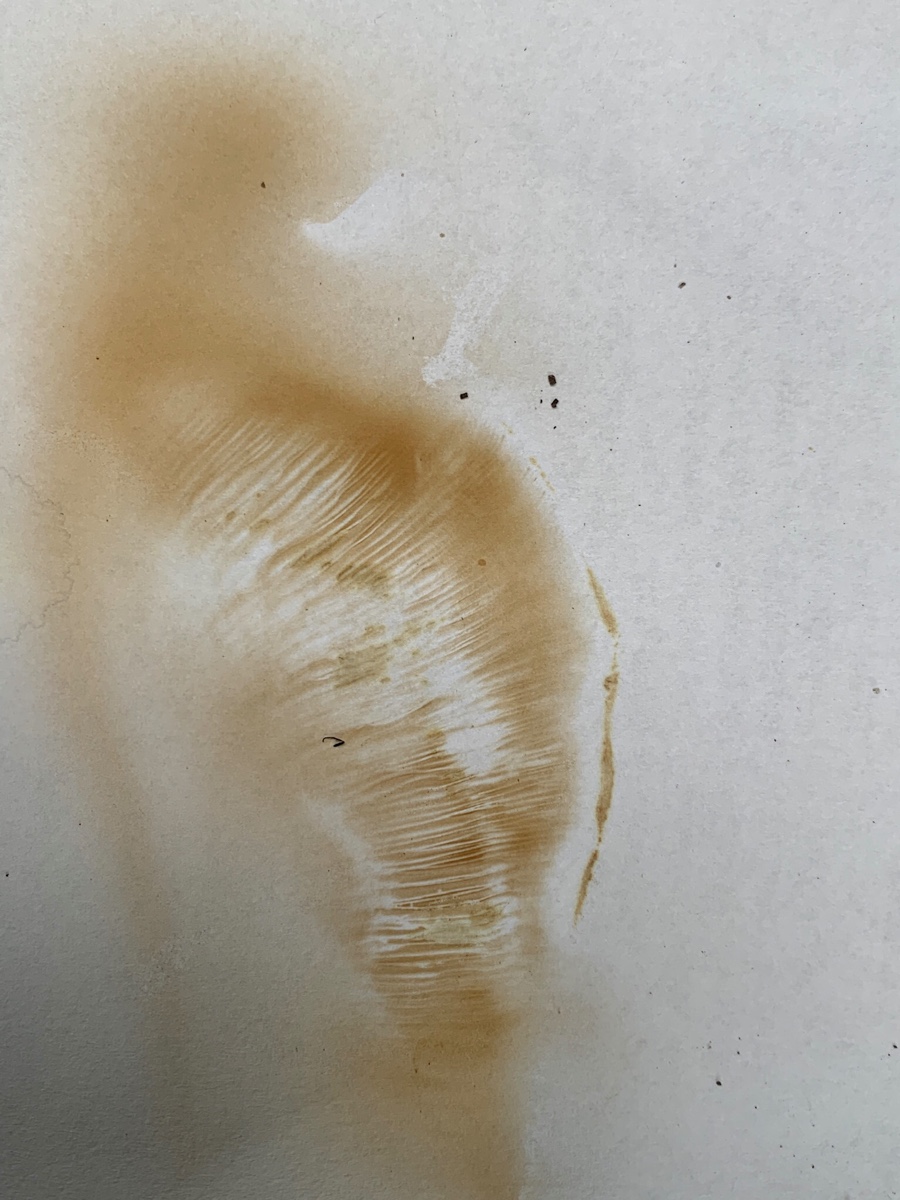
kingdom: Fungi
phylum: Basidiomycota
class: Agaricomycetes
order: Boletales
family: Paxillaceae
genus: Paxillus
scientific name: Paxillus ammoniavirescens
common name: olivensporet netbladhat
